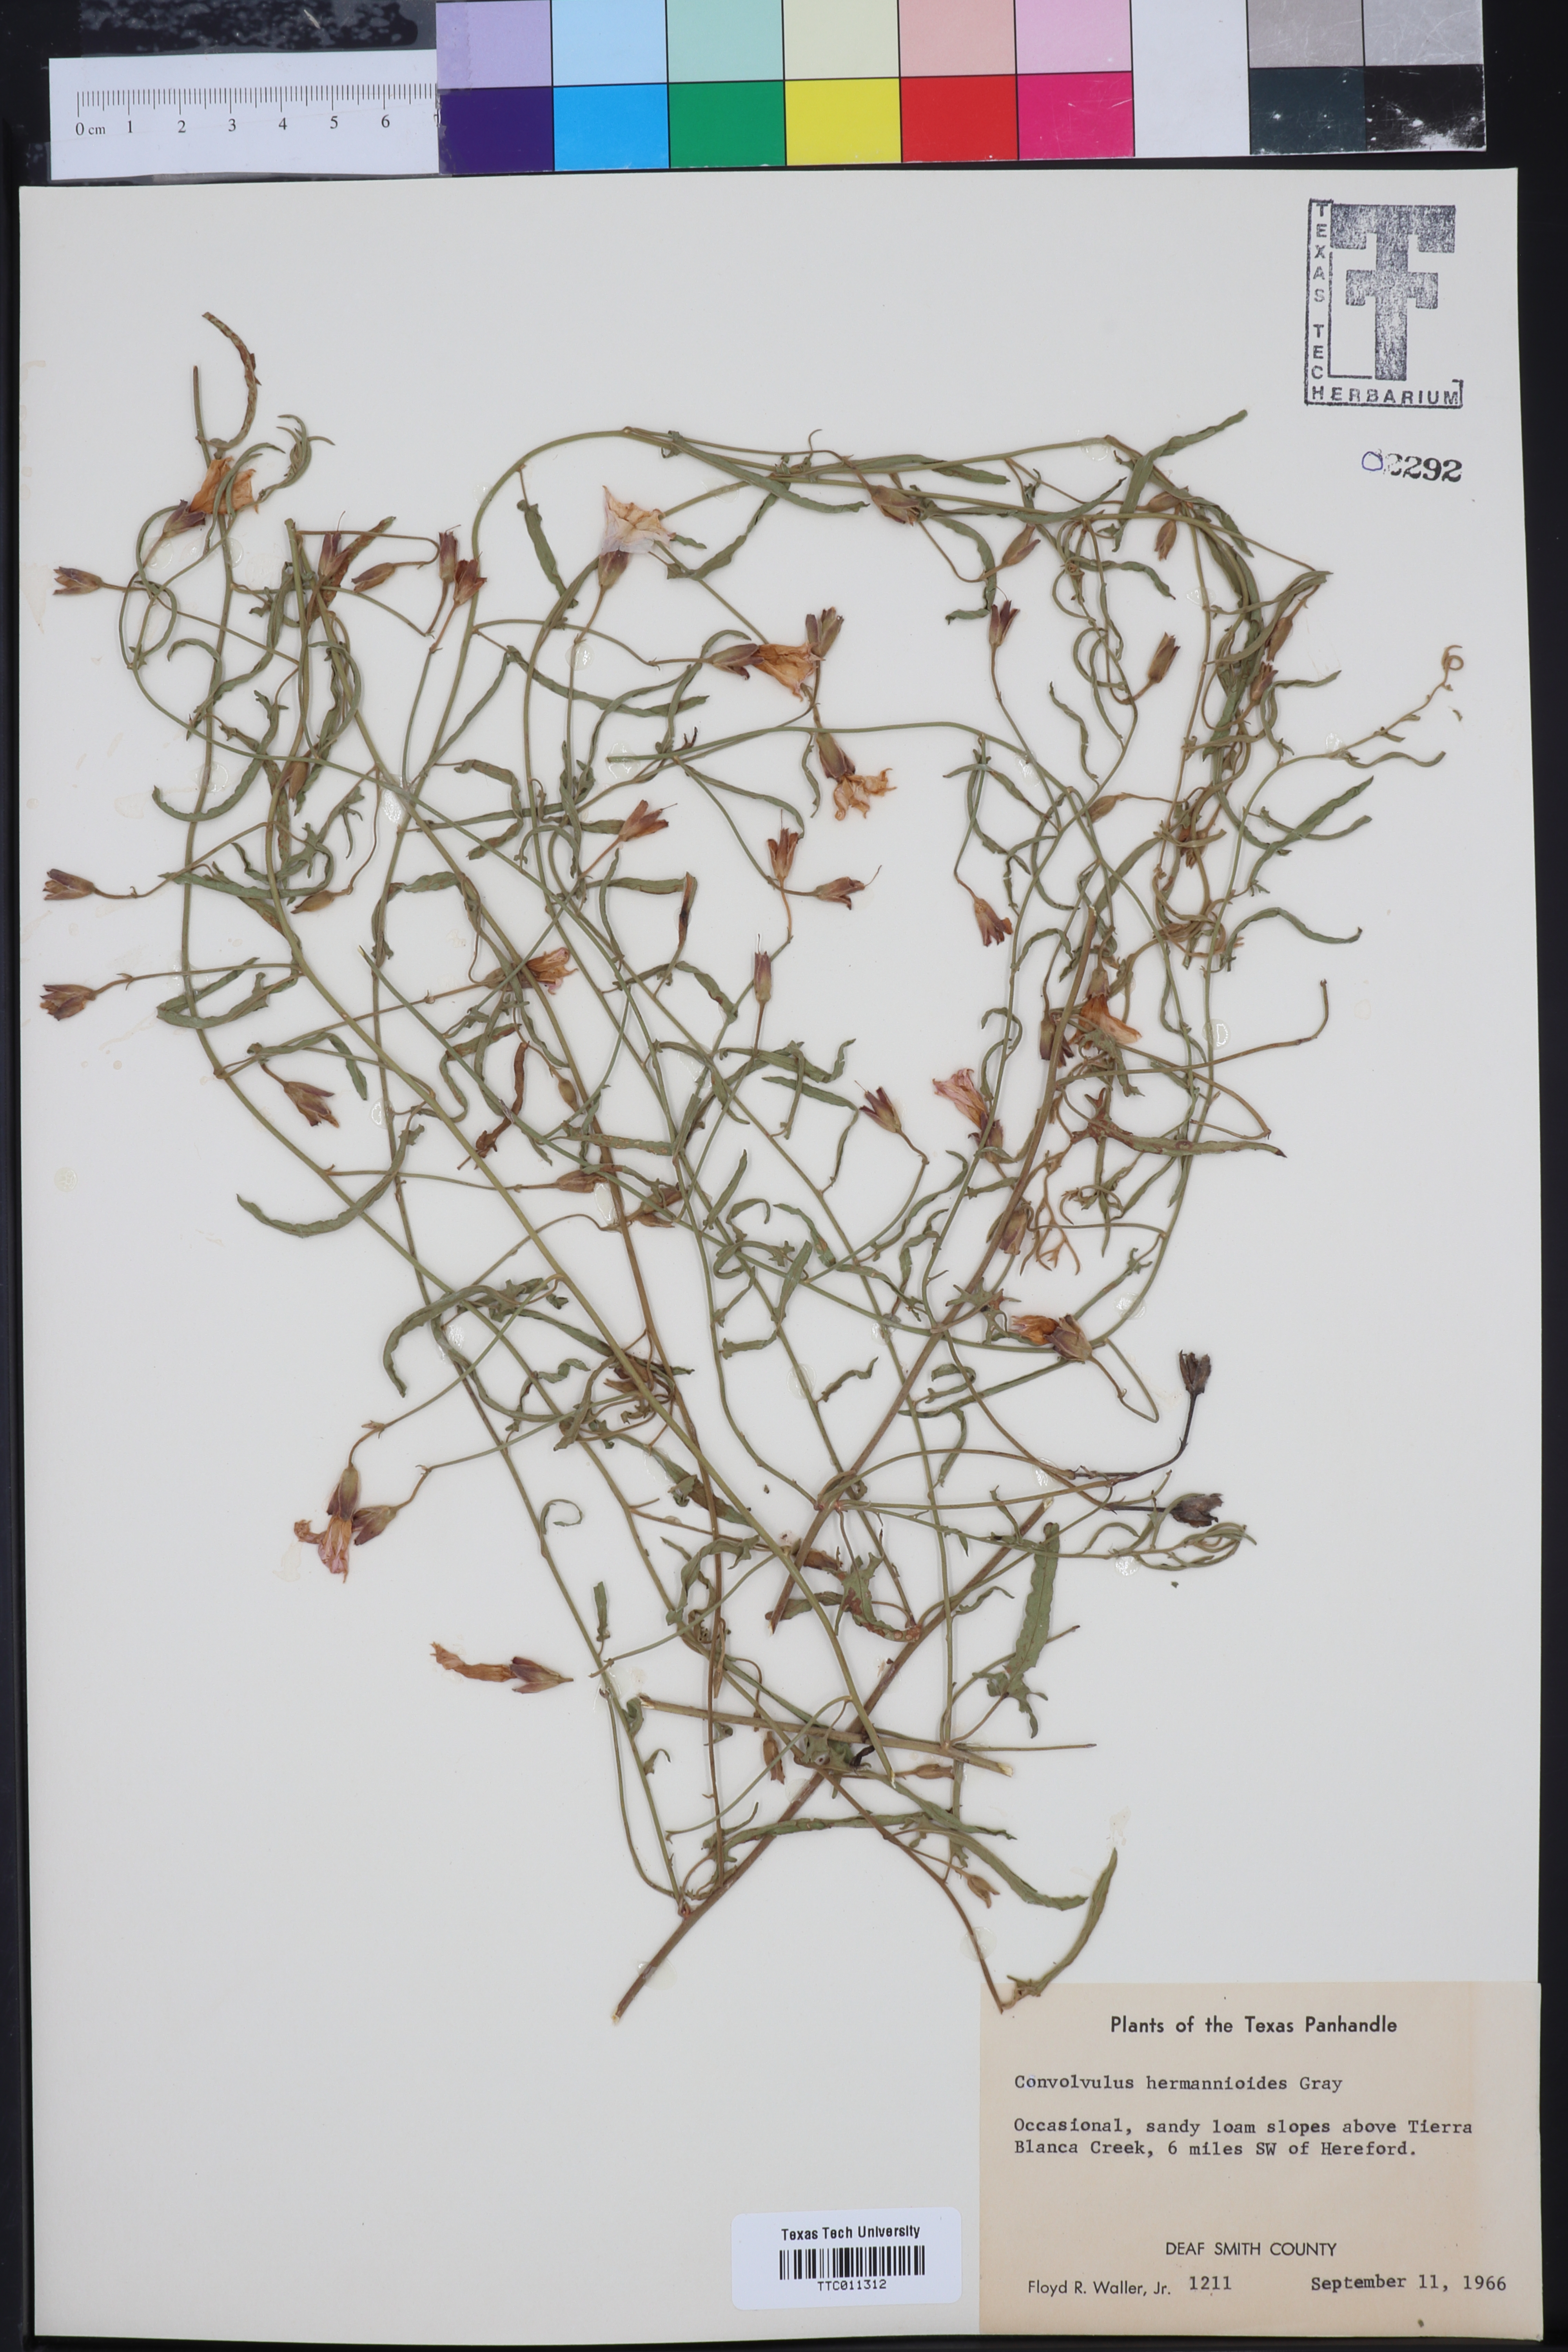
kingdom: Plantae
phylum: Tracheophyta
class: Magnoliopsida
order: Solanales
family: Convolvulaceae
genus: Convolvulus
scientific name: Convolvulus equitans
